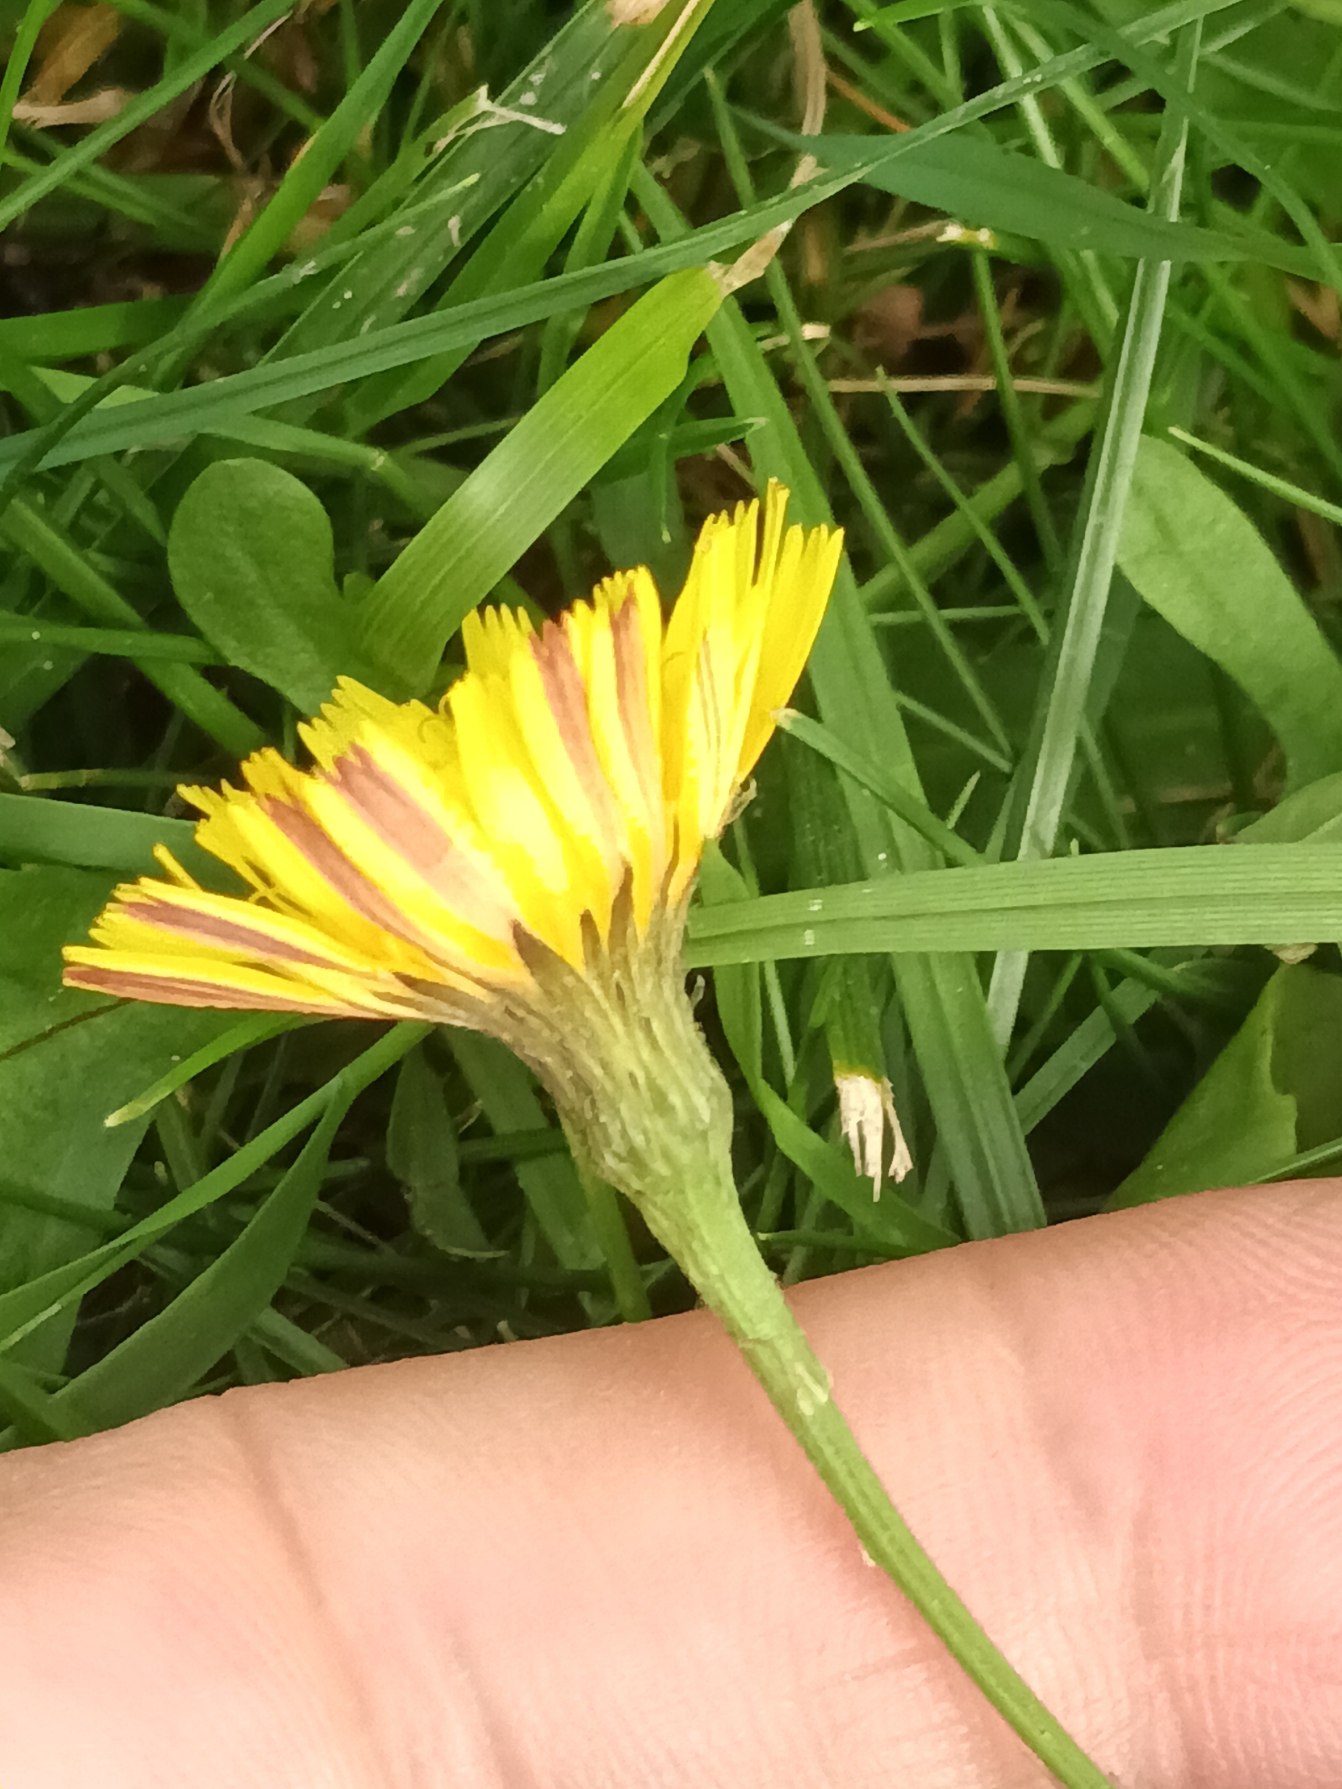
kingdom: Plantae
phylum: Tracheophyta
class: Magnoliopsida
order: Asterales
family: Asteraceae
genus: Scorzoneroides
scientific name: Scorzoneroides autumnalis
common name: Høst-borst
